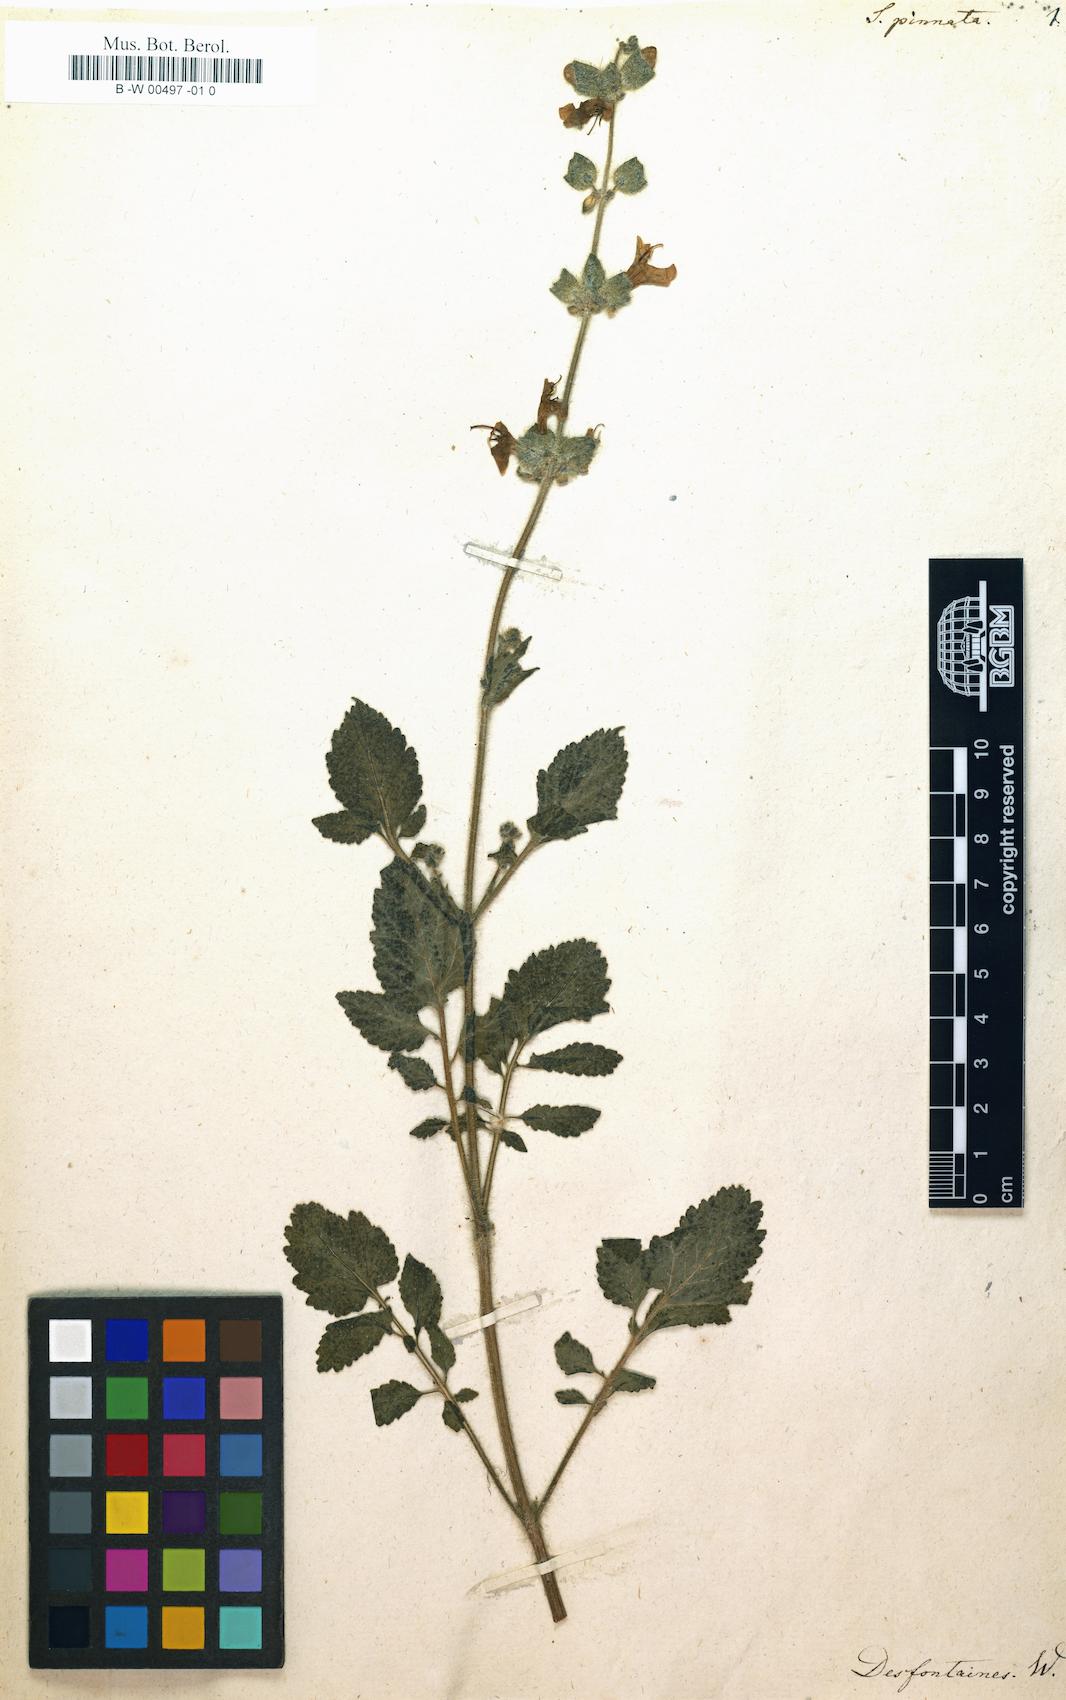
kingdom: Plantae
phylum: Tracheophyta
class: Magnoliopsida
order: Lamiales
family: Lamiaceae
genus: Salvia
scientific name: Salvia plectranthoides
